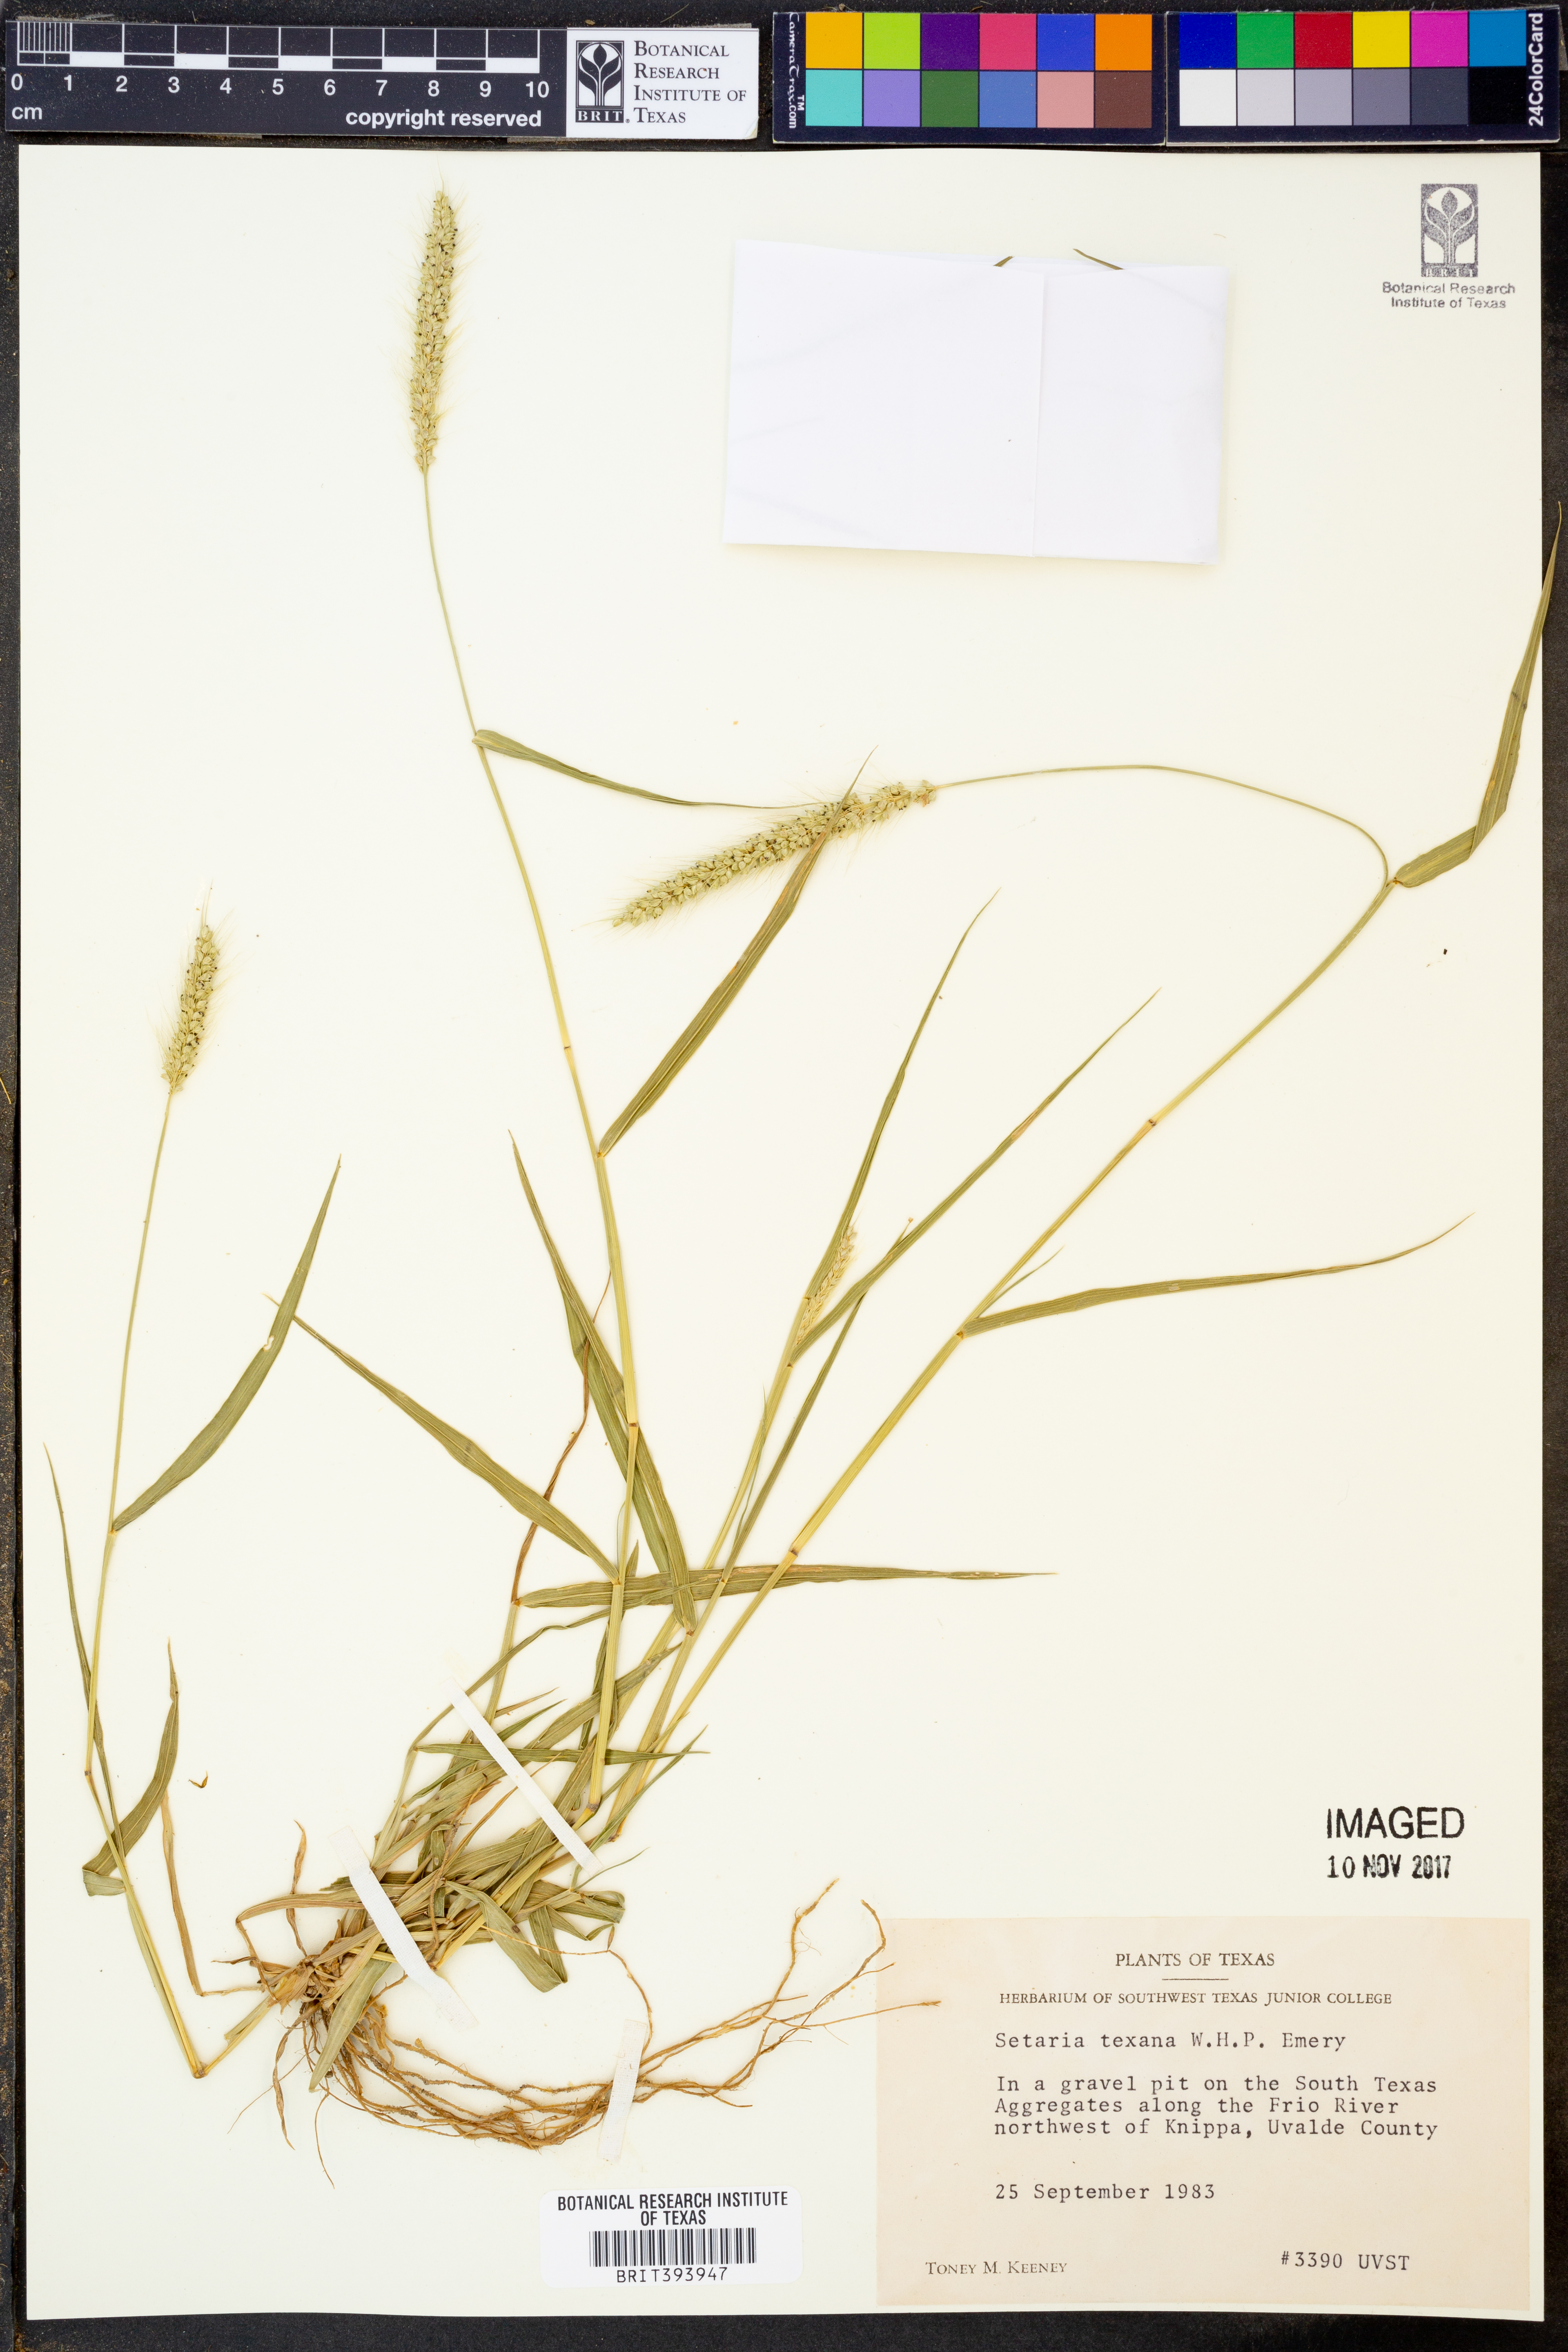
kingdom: Plantae
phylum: Tracheophyta
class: Liliopsida
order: Poales
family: Poaceae
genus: Setaria
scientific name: Setaria texana
